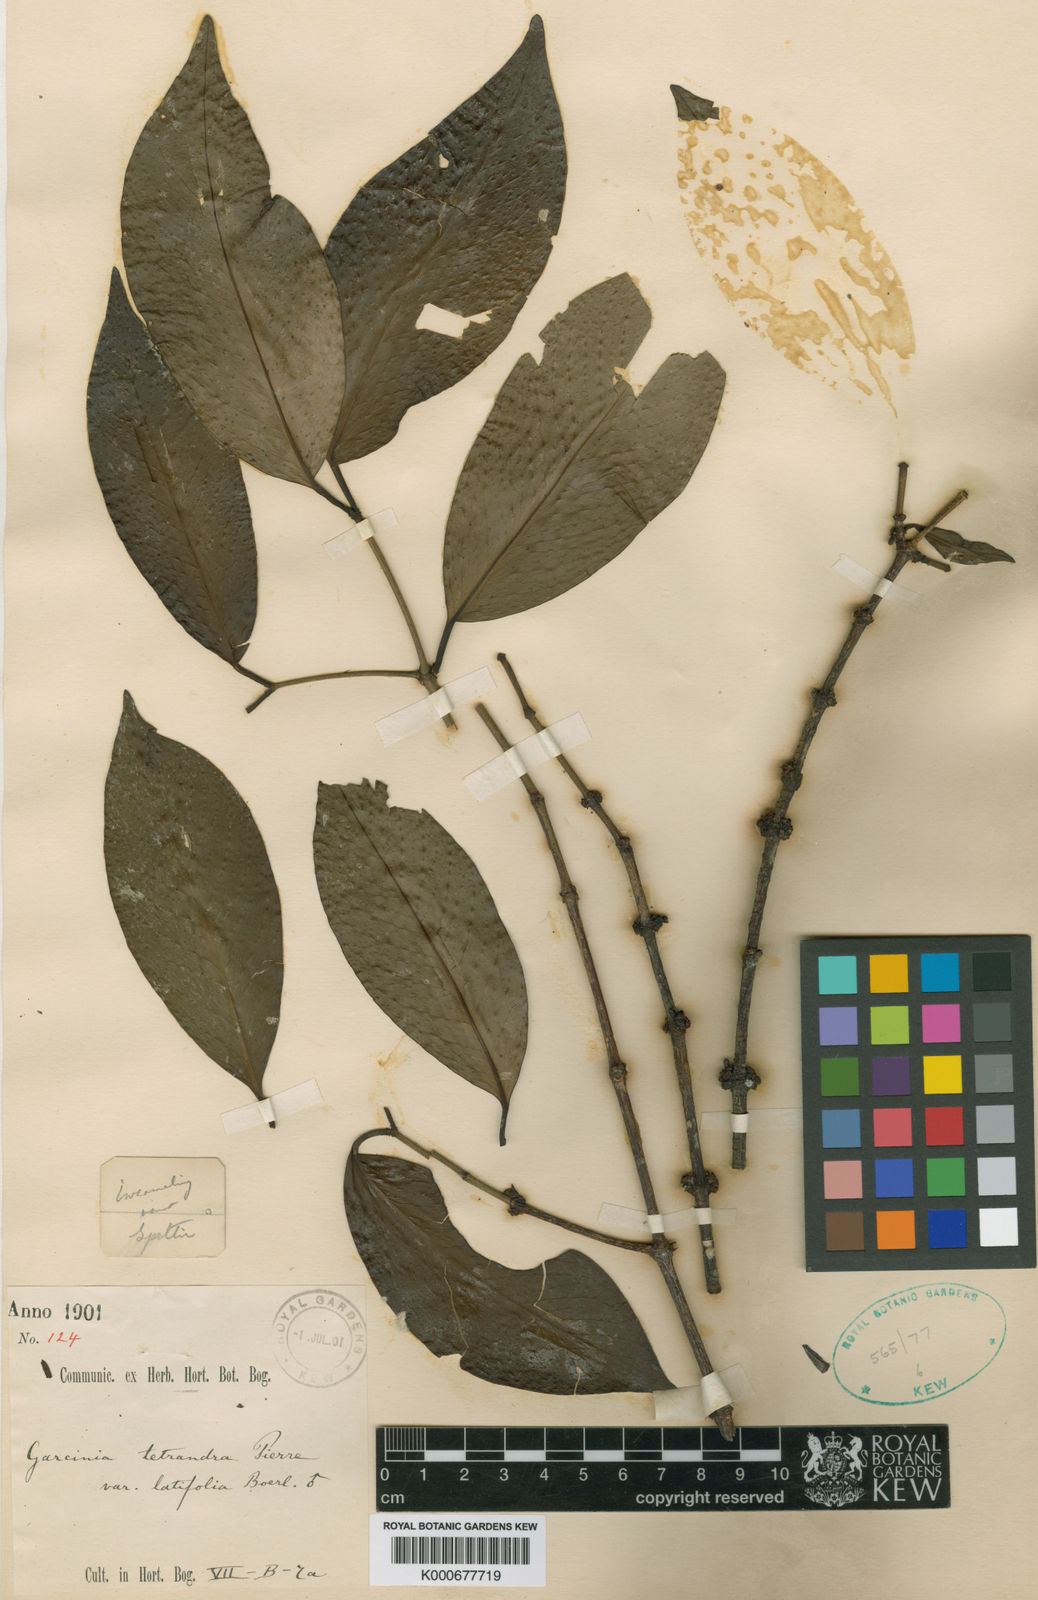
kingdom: Plantae
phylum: Tracheophyta
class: Magnoliopsida
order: Malpighiales
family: Clusiaceae
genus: Garcinia
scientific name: Garcinia tetrandra
